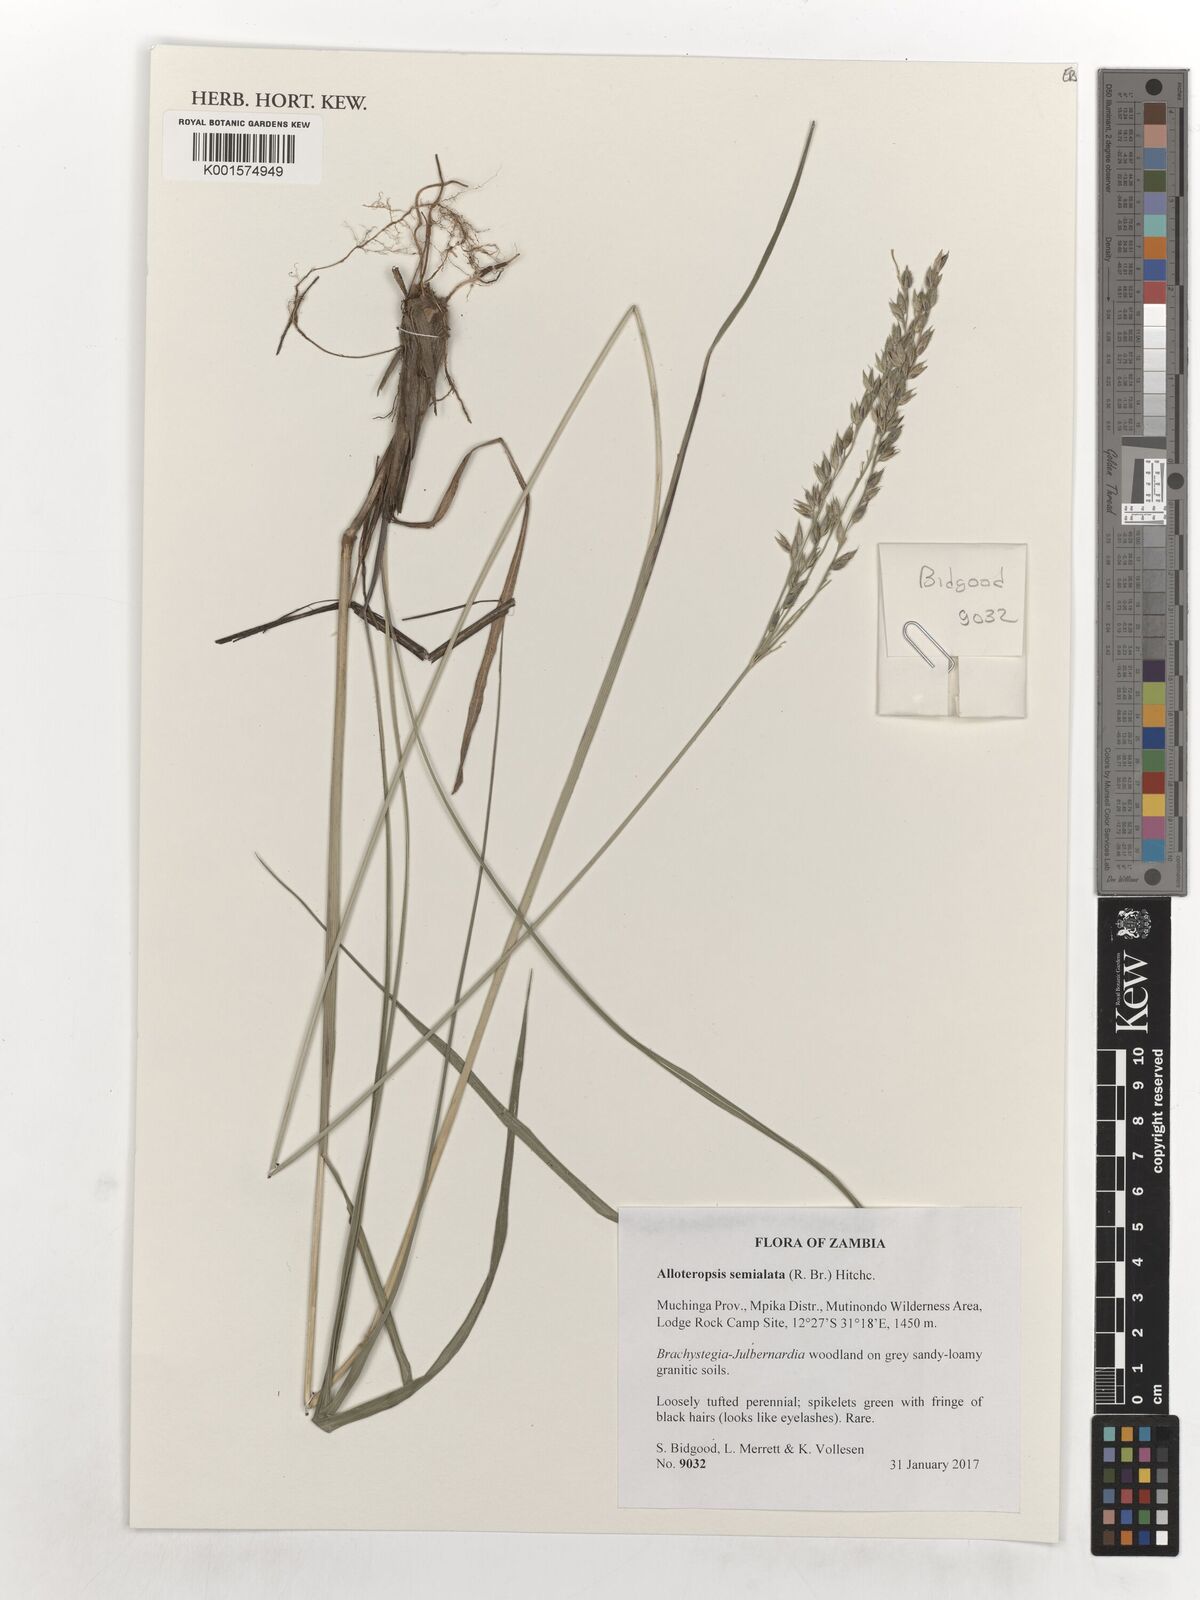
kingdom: Plantae
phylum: Tracheophyta
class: Liliopsida
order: Poales
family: Poaceae
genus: Alloteropsis
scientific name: Alloteropsis semialata
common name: Cockatoo grass
